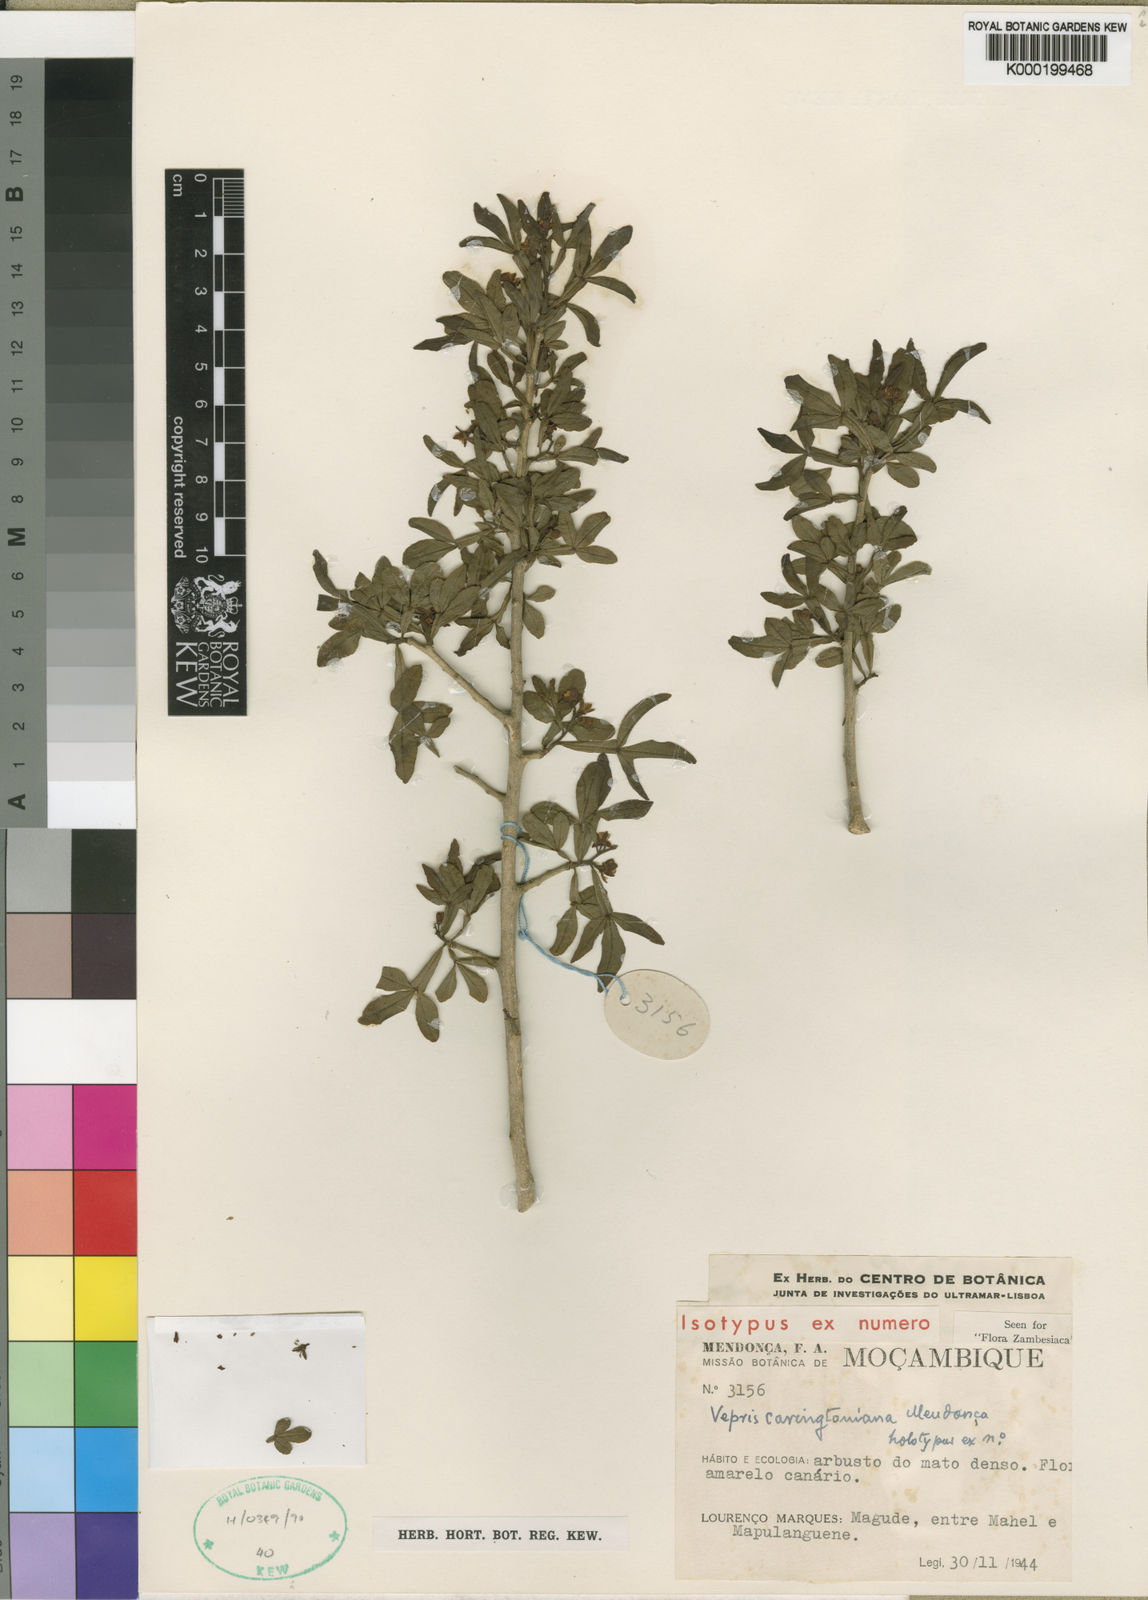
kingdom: Plantae
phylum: Tracheophyta
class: Magnoliopsida
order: Sapindales
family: Rutaceae
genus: Vepris
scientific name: Vepris
